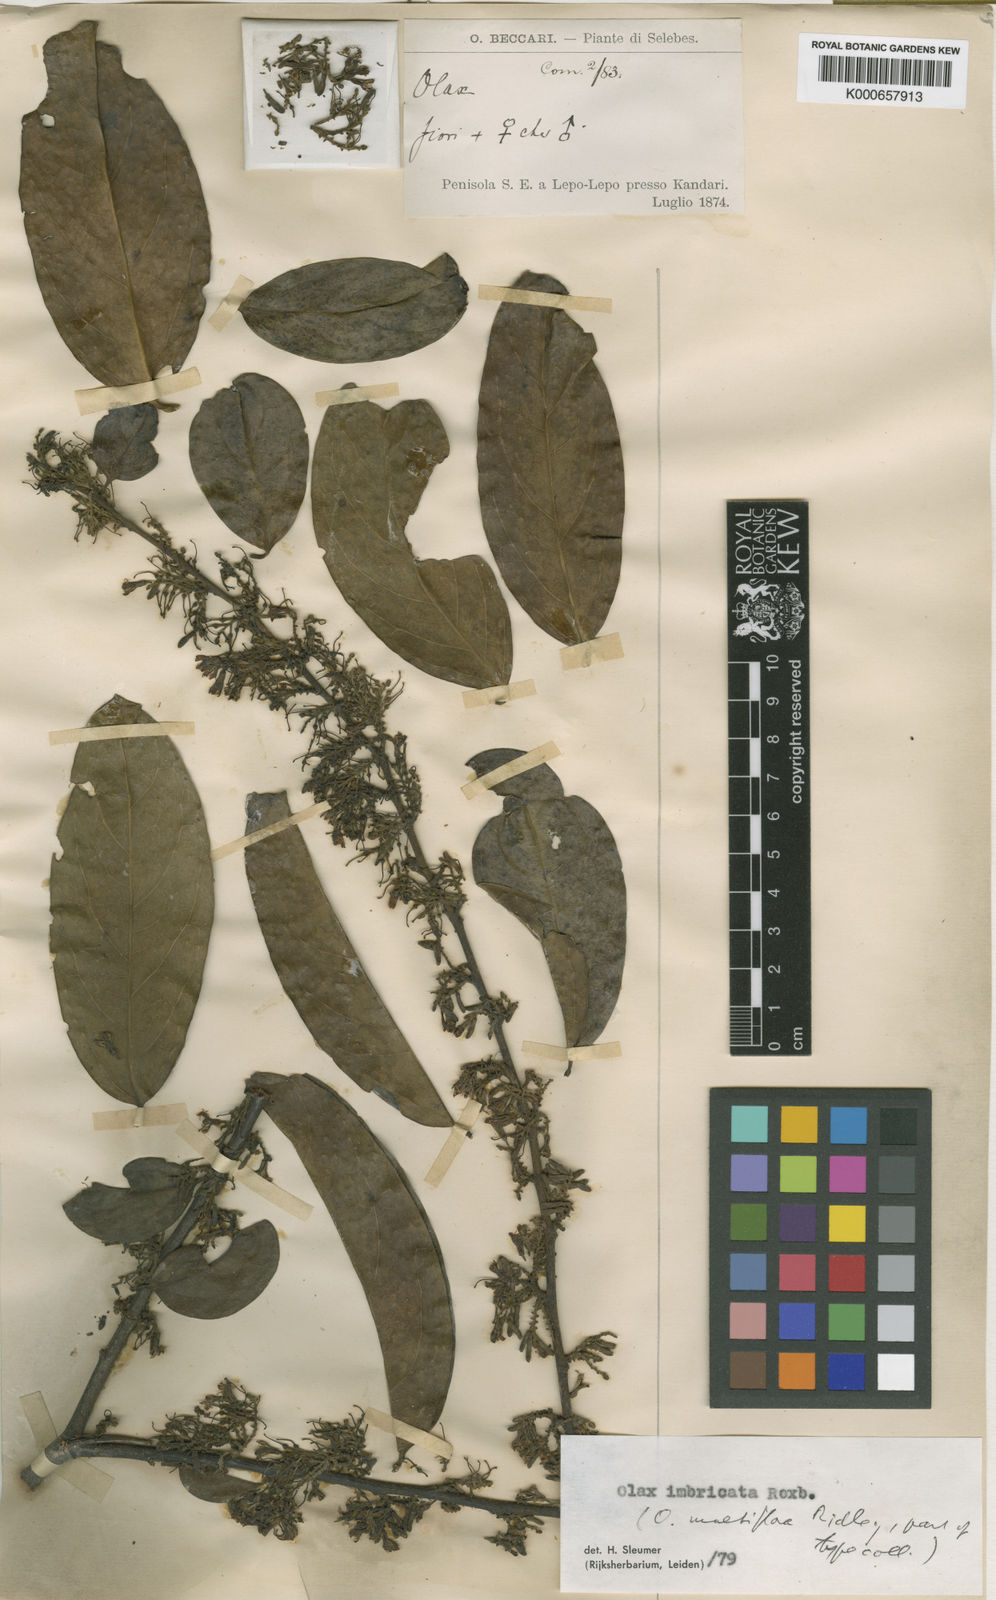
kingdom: Plantae
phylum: Tracheophyta
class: Magnoliopsida
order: Santalales
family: Olacaceae
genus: Olax
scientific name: Olax imbricata
